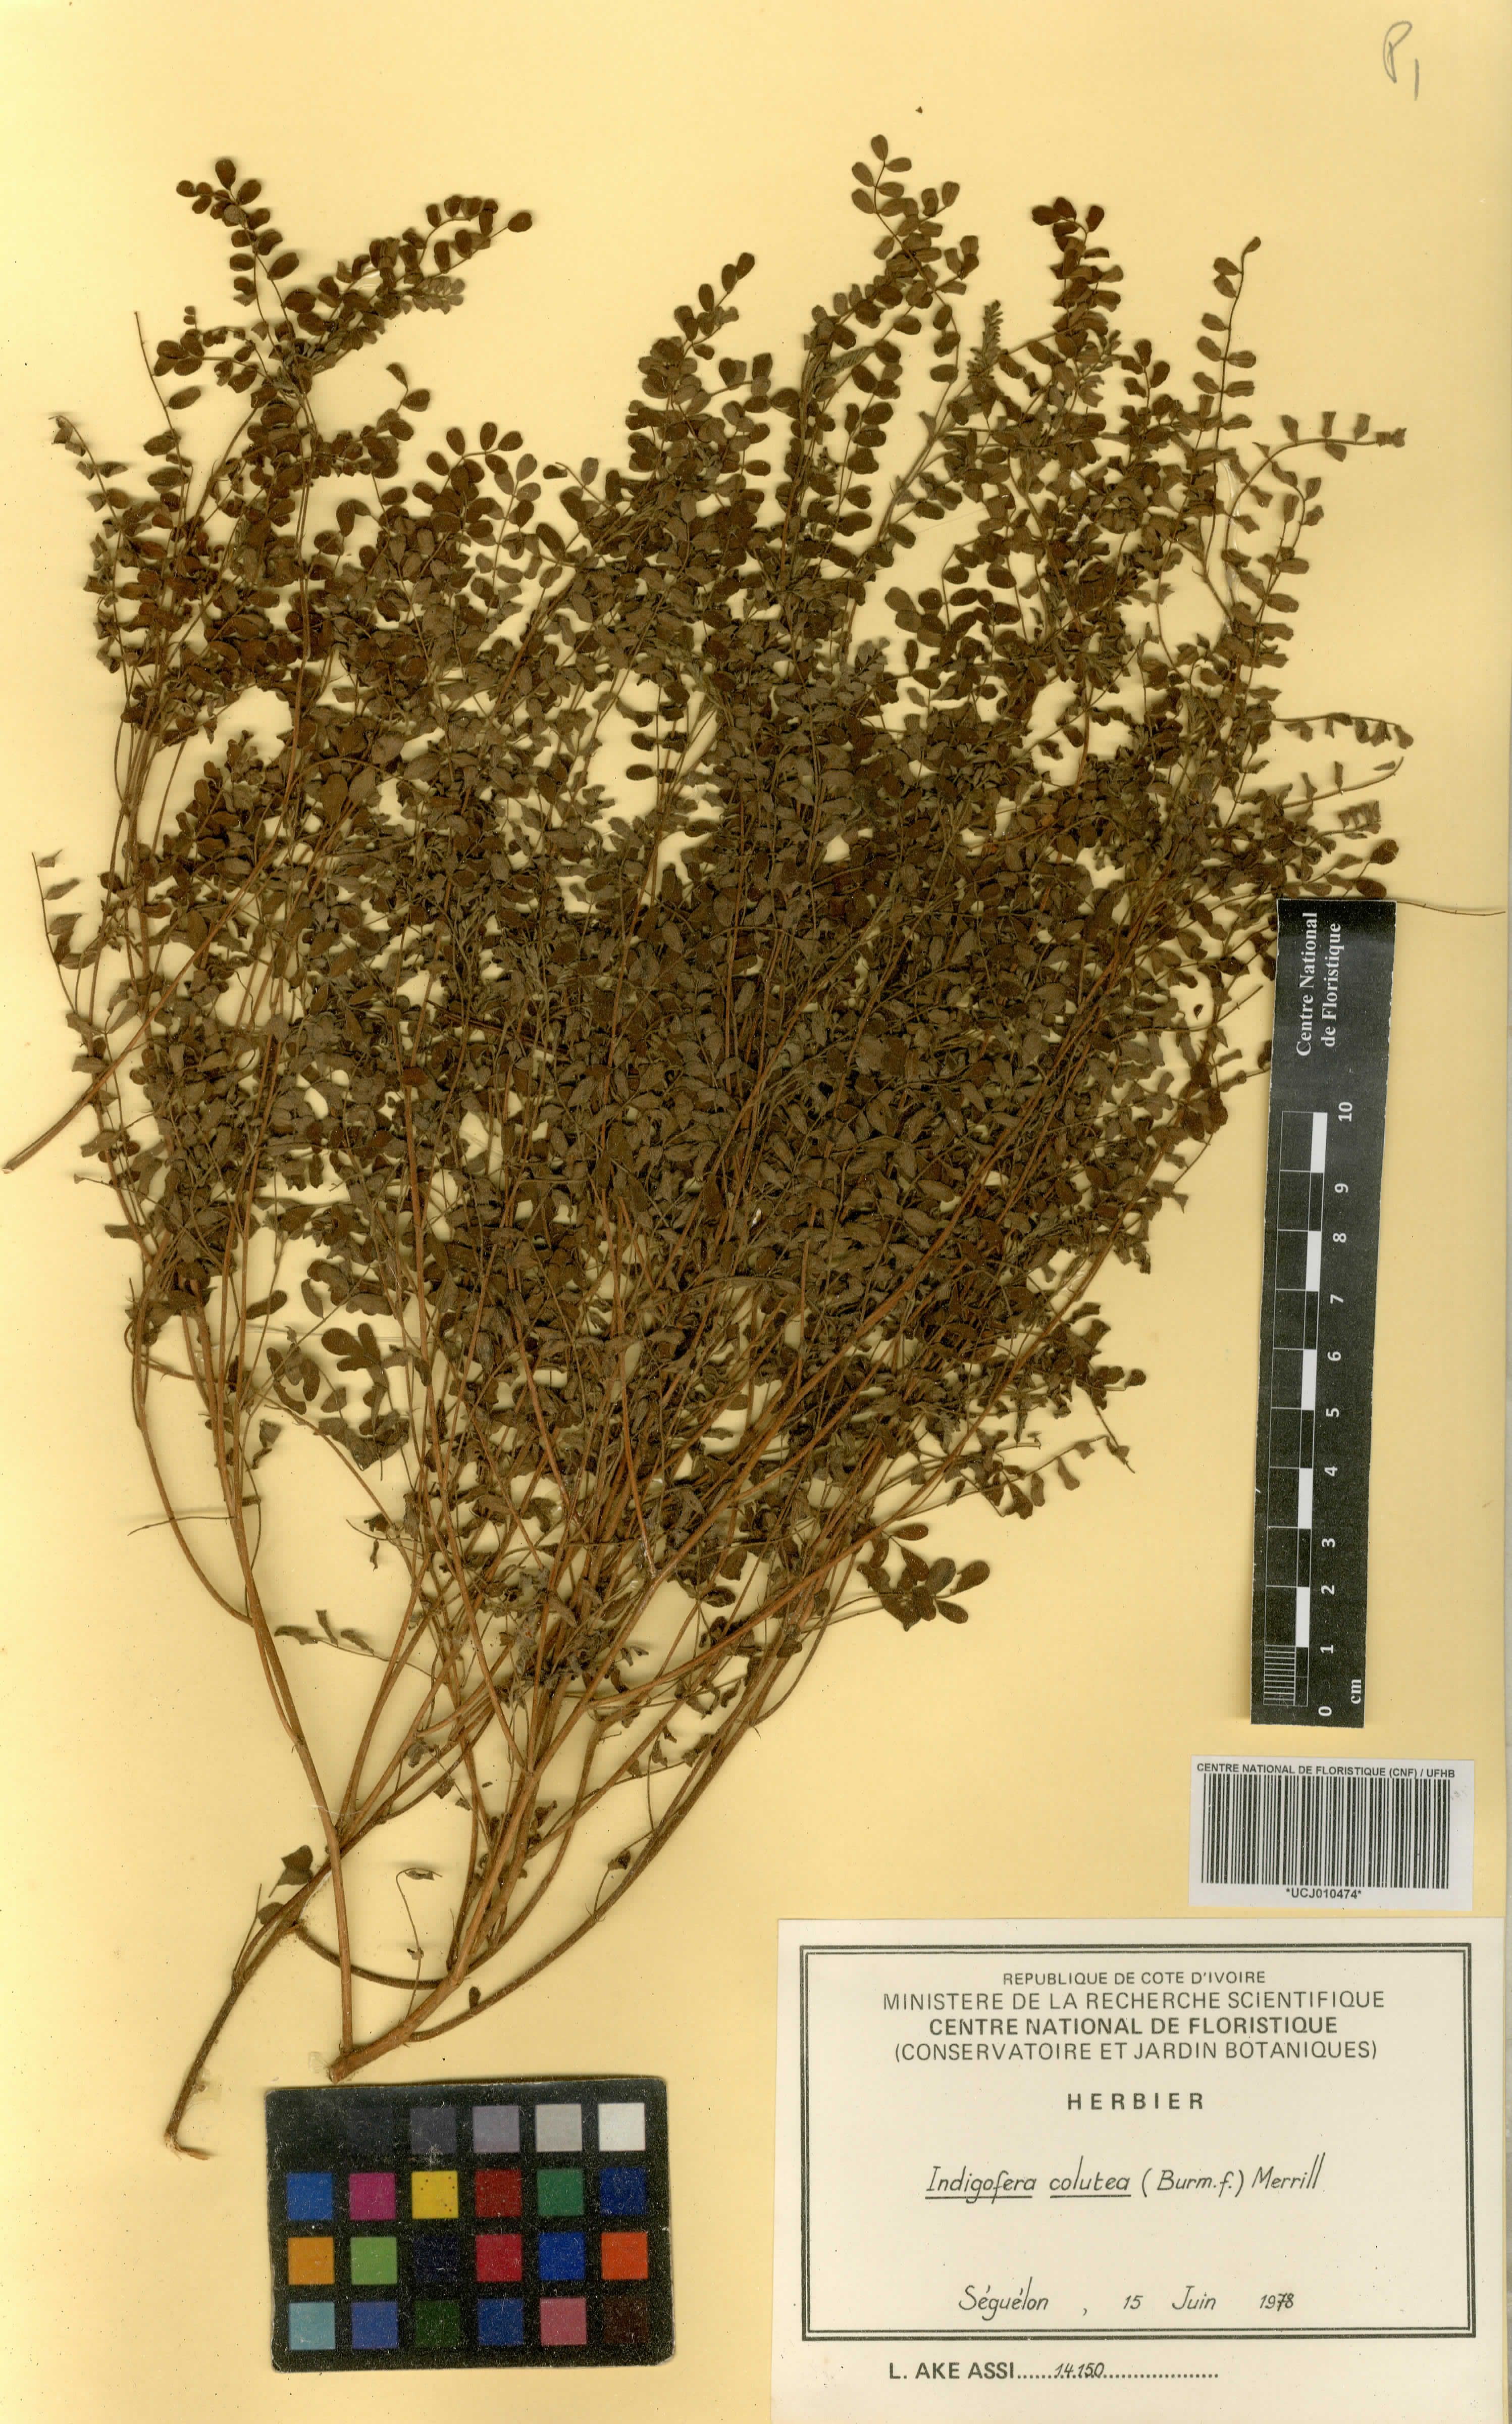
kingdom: Plantae
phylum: Tracheophyta
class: Magnoliopsida
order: Fabales
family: Fabaceae
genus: Indigofera
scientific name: Indigofera colutea
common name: Rusty indigo
